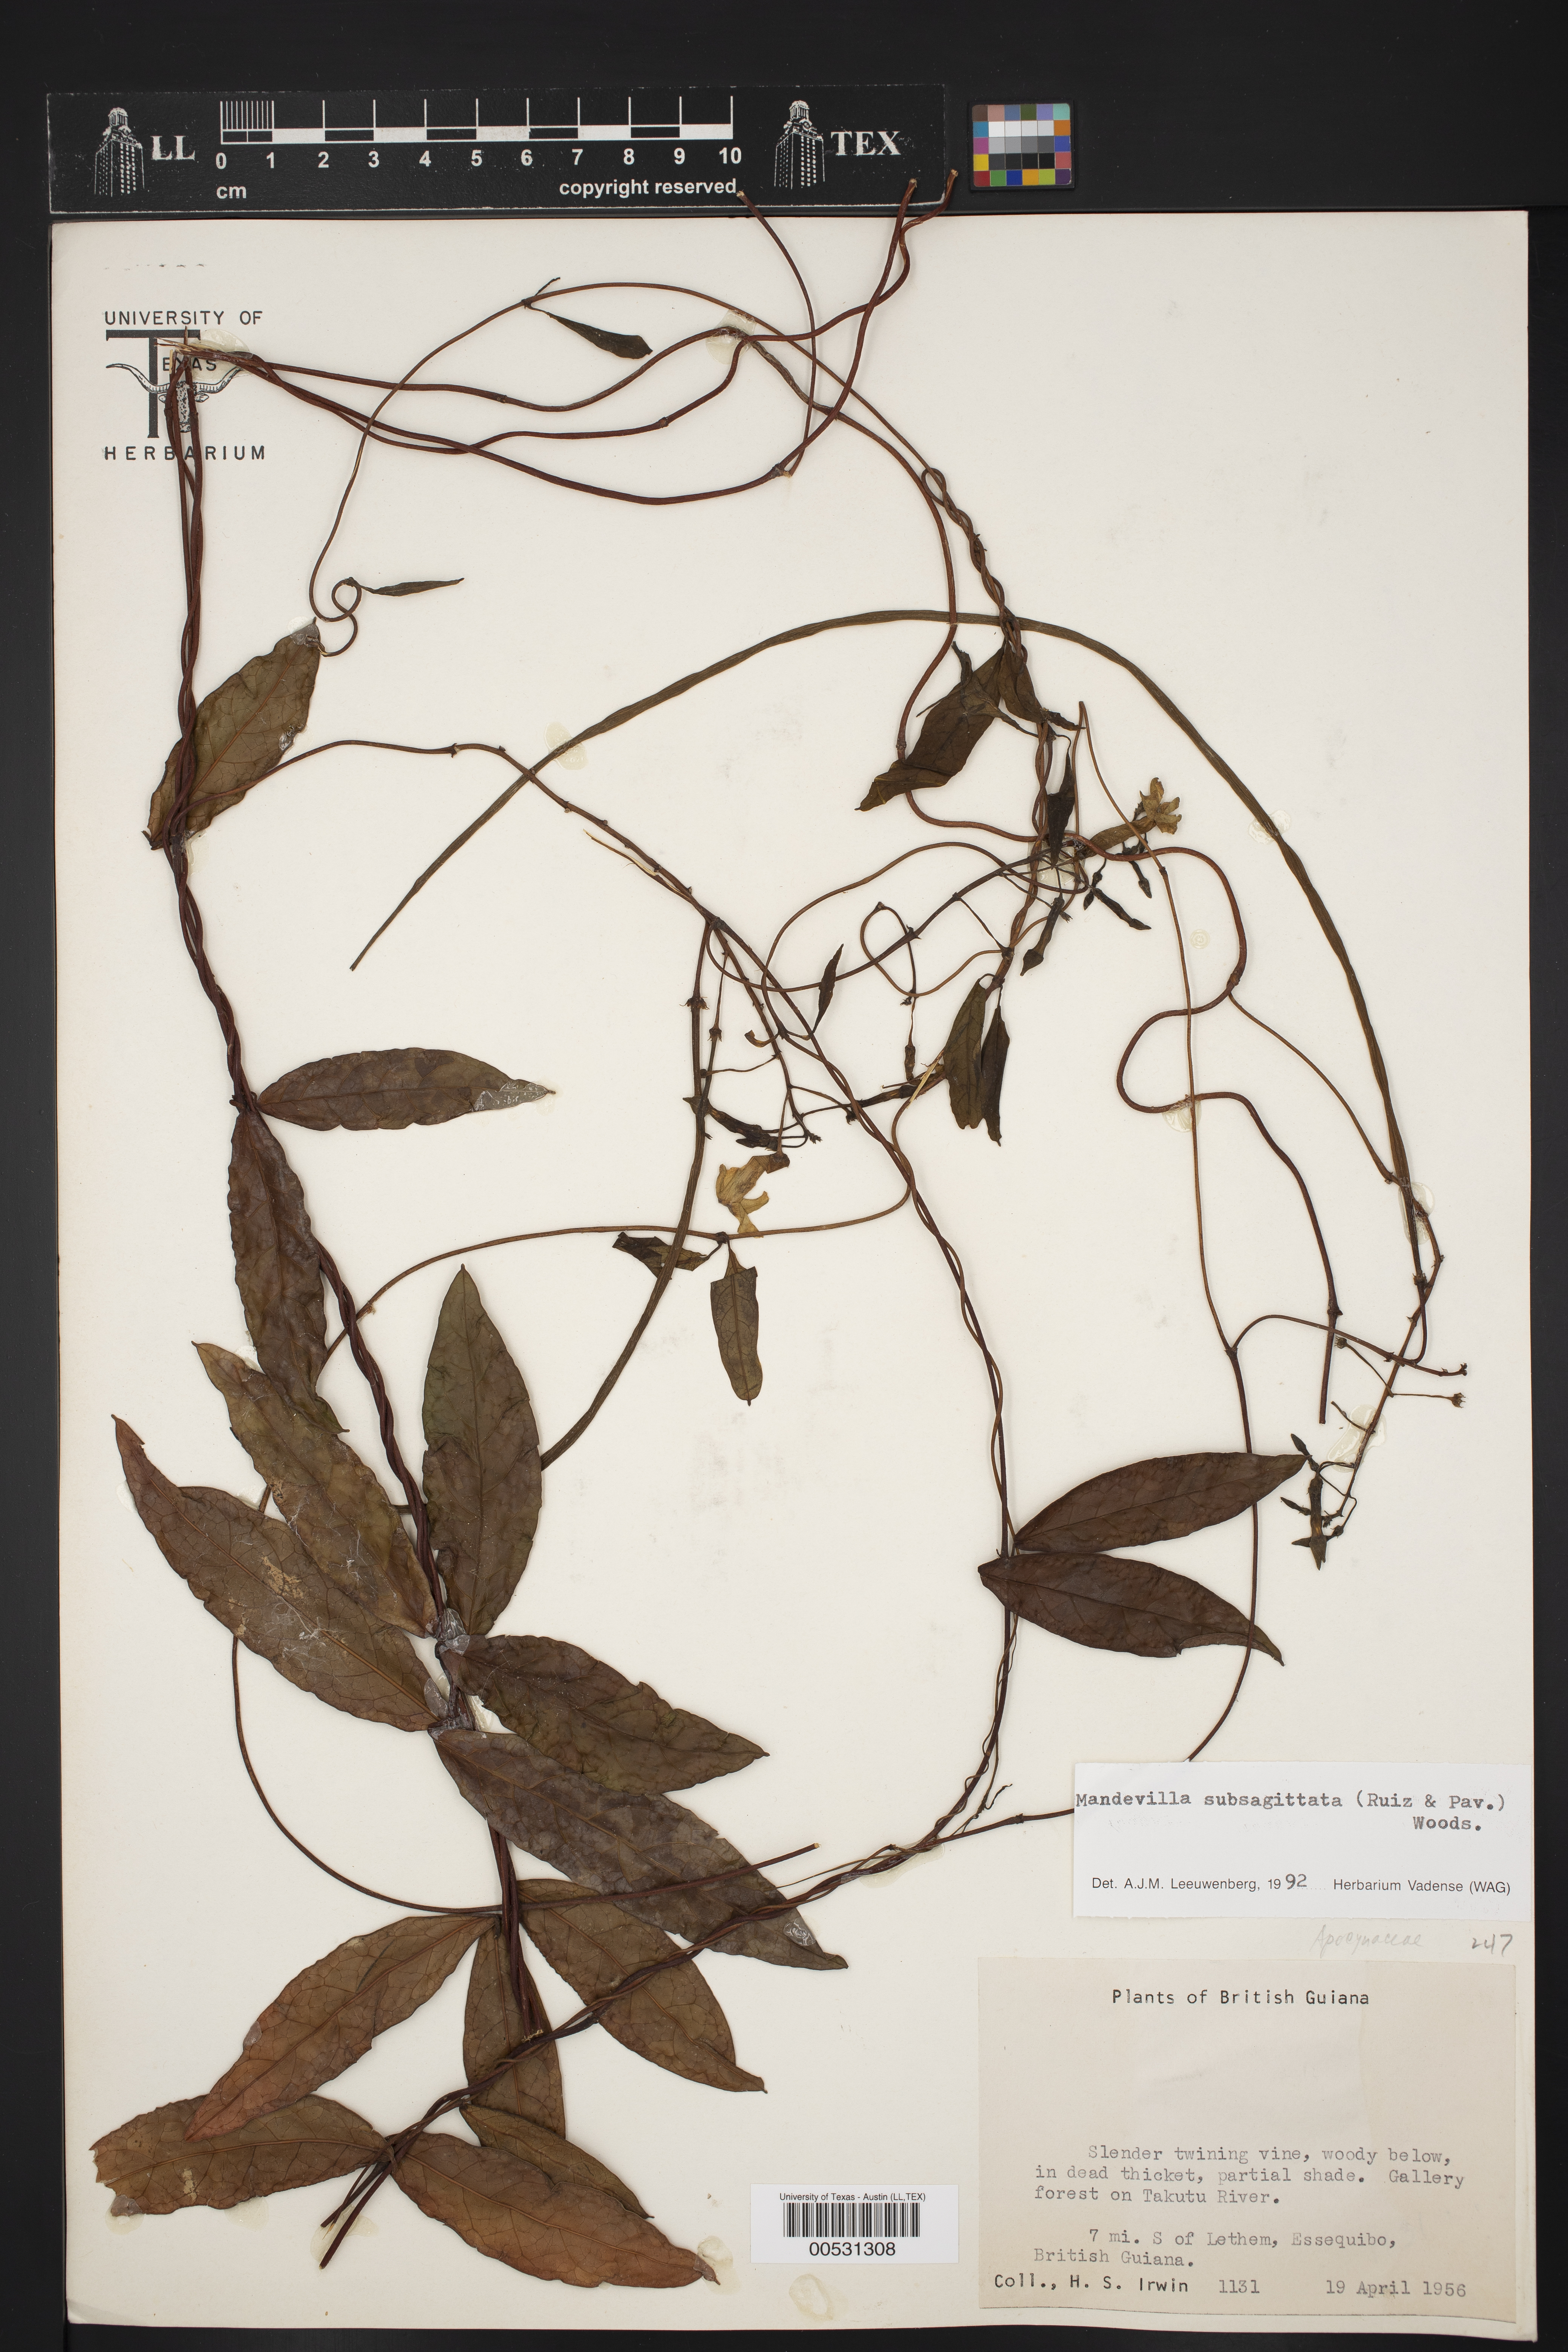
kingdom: Plantae
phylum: Tracheophyta
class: Magnoliopsida
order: Gentianales
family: Apocynaceae
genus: Mandevilla
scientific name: Mandevilla subsagittata
